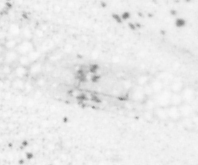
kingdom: Animalia
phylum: Chordata
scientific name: Chordata
